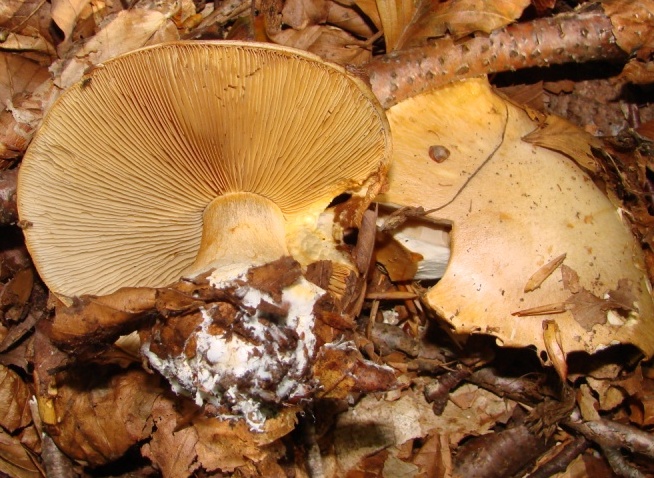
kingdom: Fungi
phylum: Basidiomycota
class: Agaricomycetes
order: Agaricales
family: Cortinariaceae
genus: Thaxterogaster
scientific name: Thaxterogaster talus
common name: knogle-slørhat
